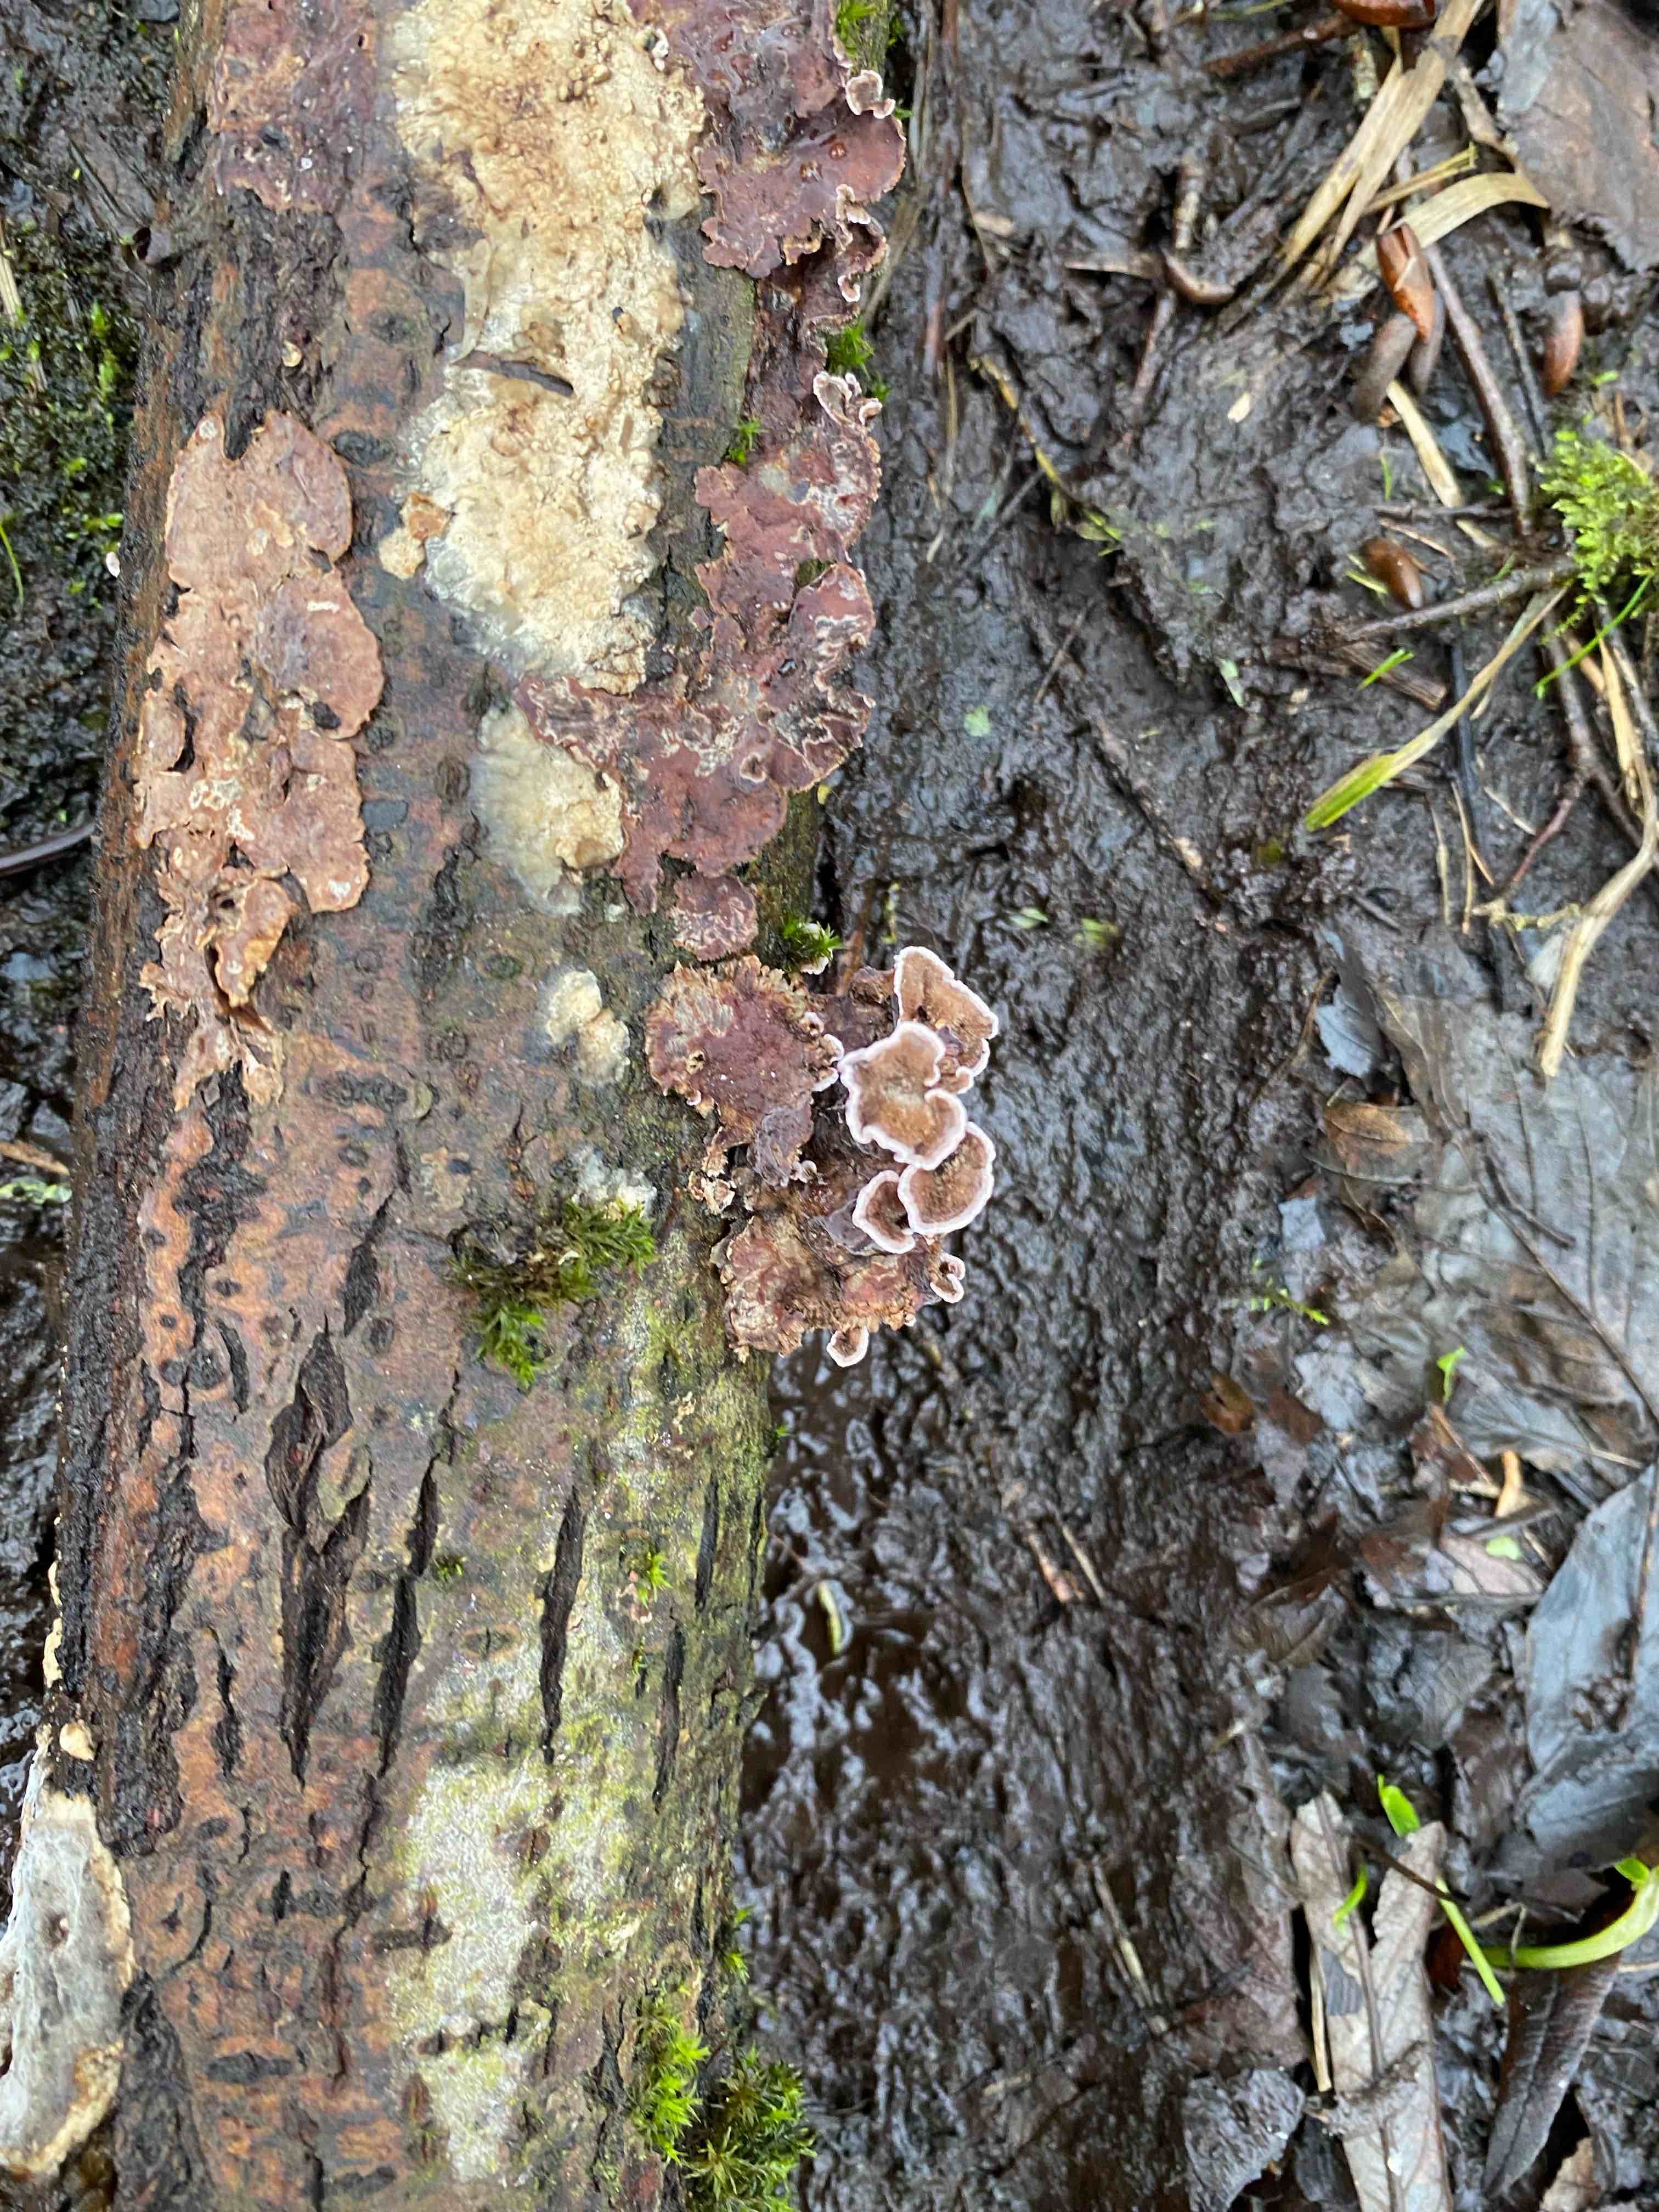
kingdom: Fungi
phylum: Basidiomycota
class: Agaricomycetes
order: Agaricales
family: Cyphellaceae
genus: Chondrostereum
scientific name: Chondrostereum purpureum
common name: purpurlædersvamp
